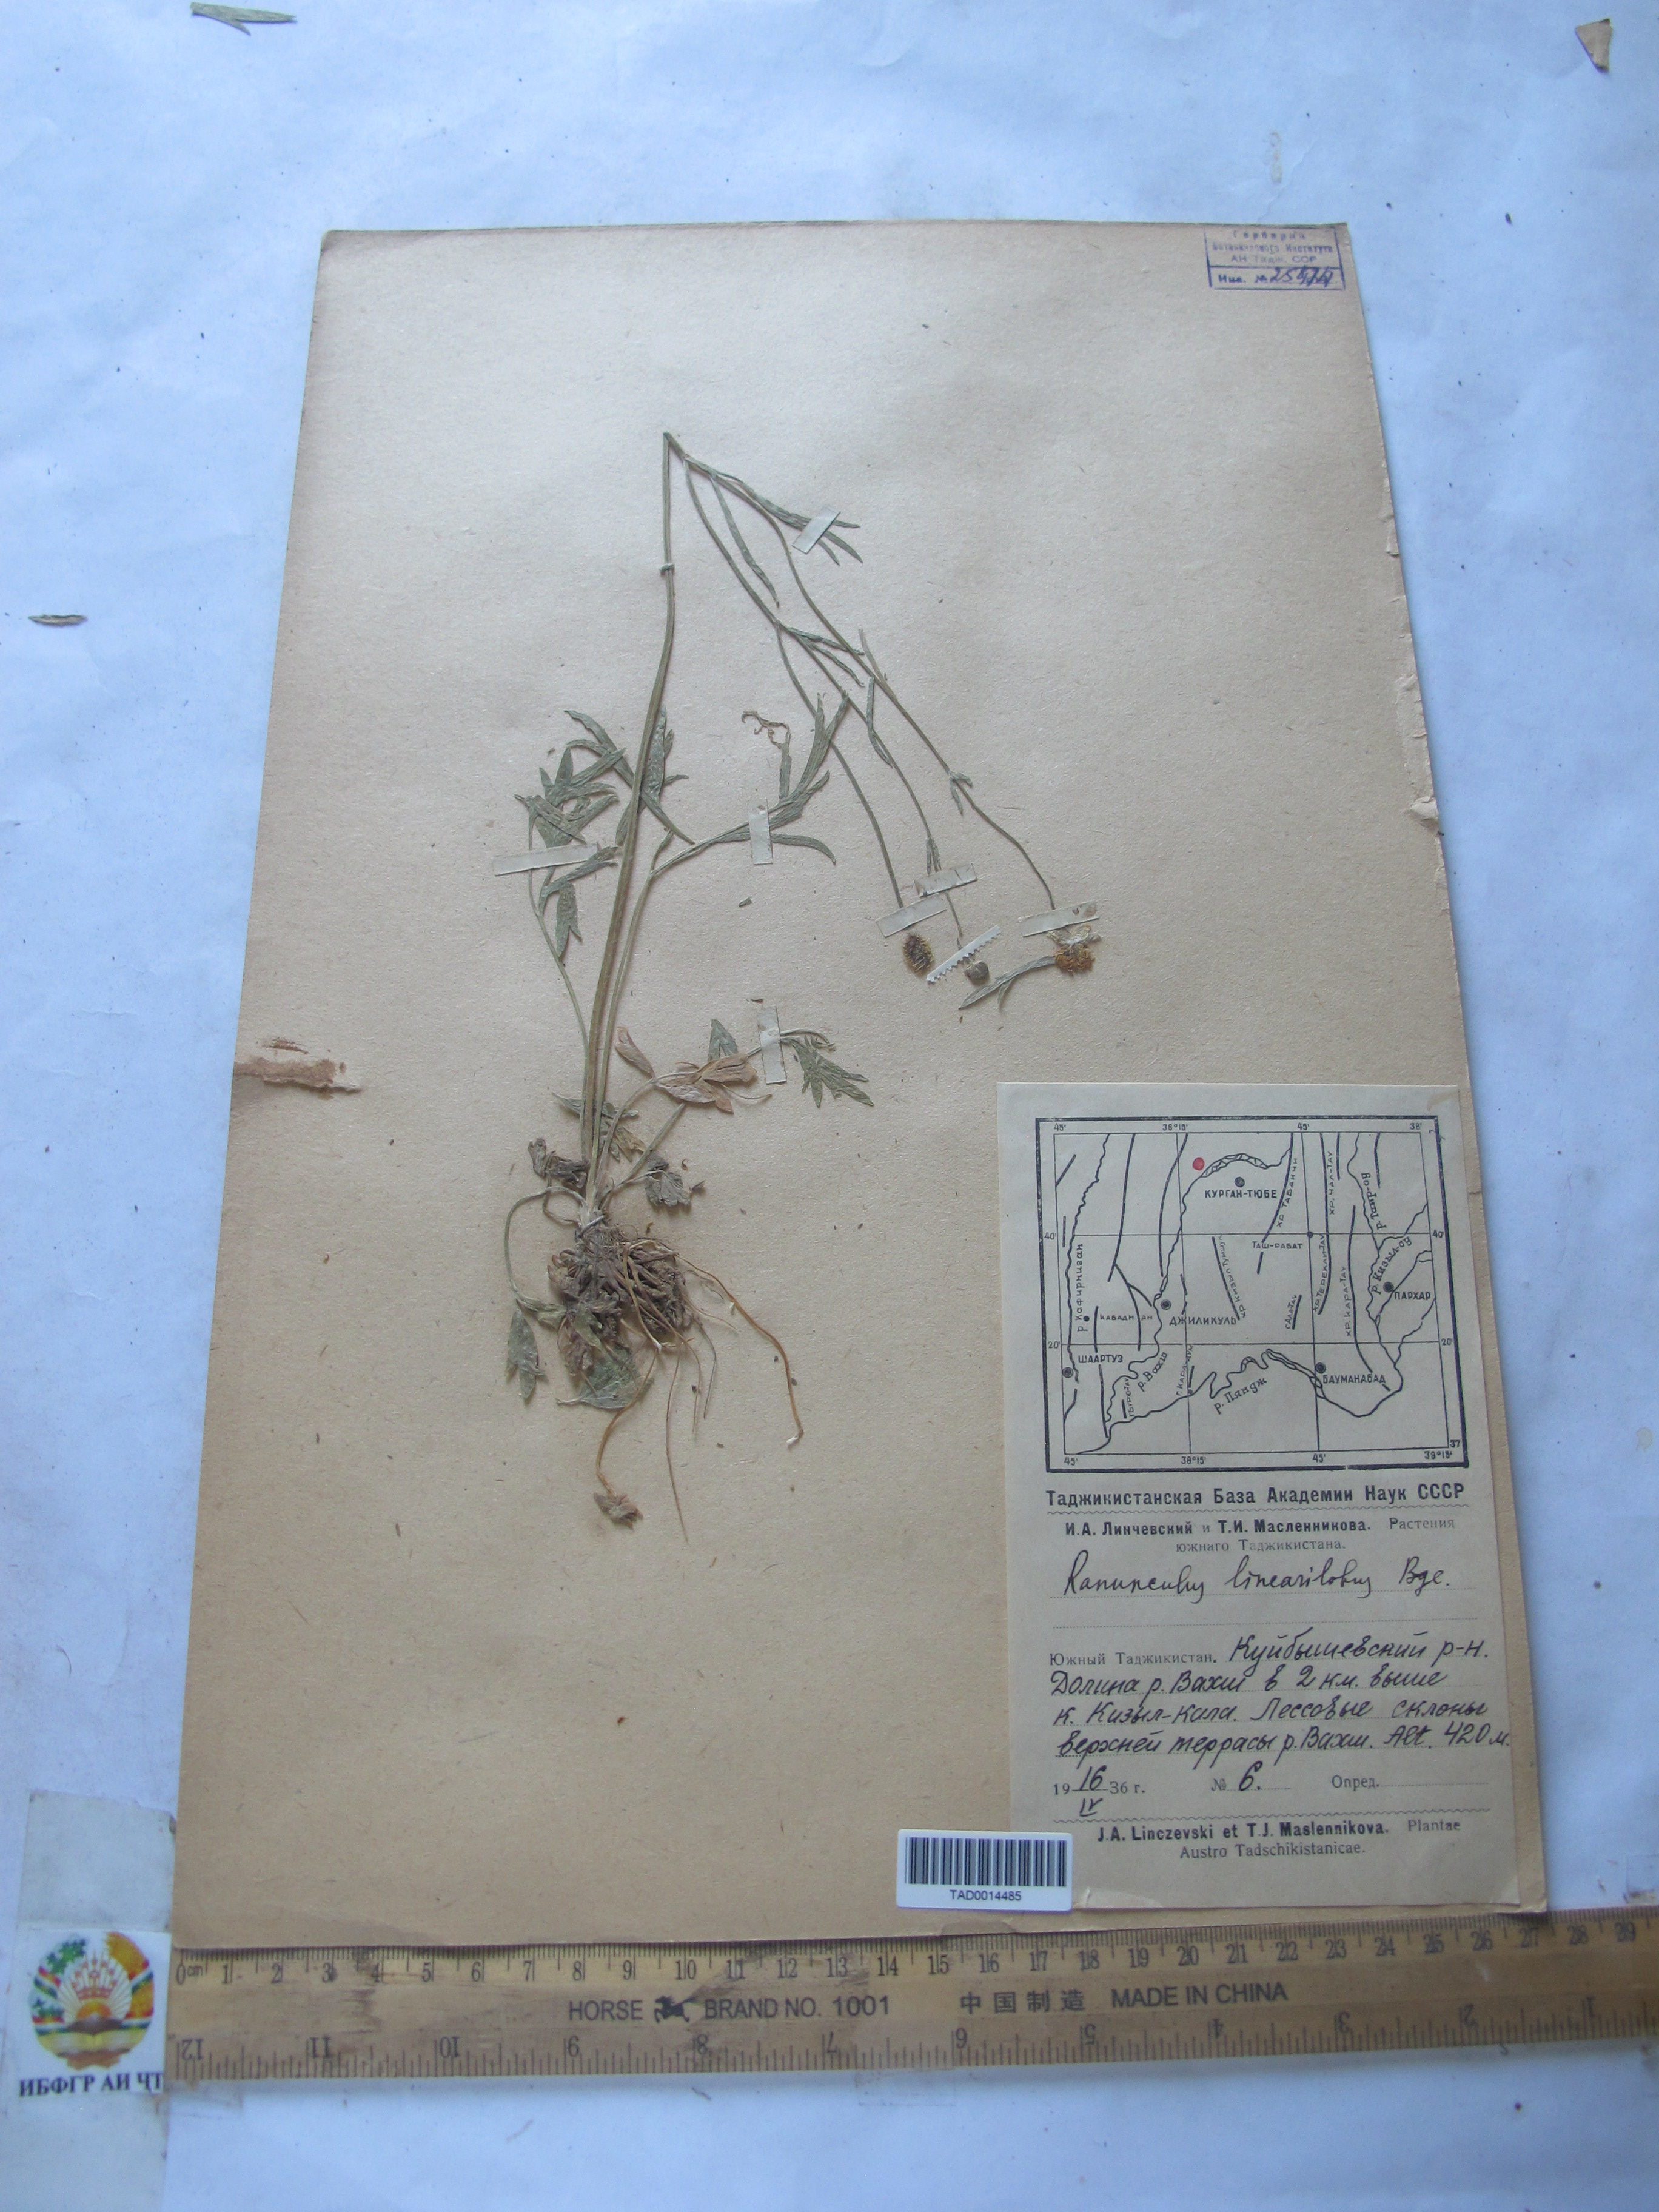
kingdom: Plantae
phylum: Tracheophyta
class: Magnoliopsida
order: Ranunculales
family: Ranunculaceae
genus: Ranunculus
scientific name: Ranunculus linearilobus
